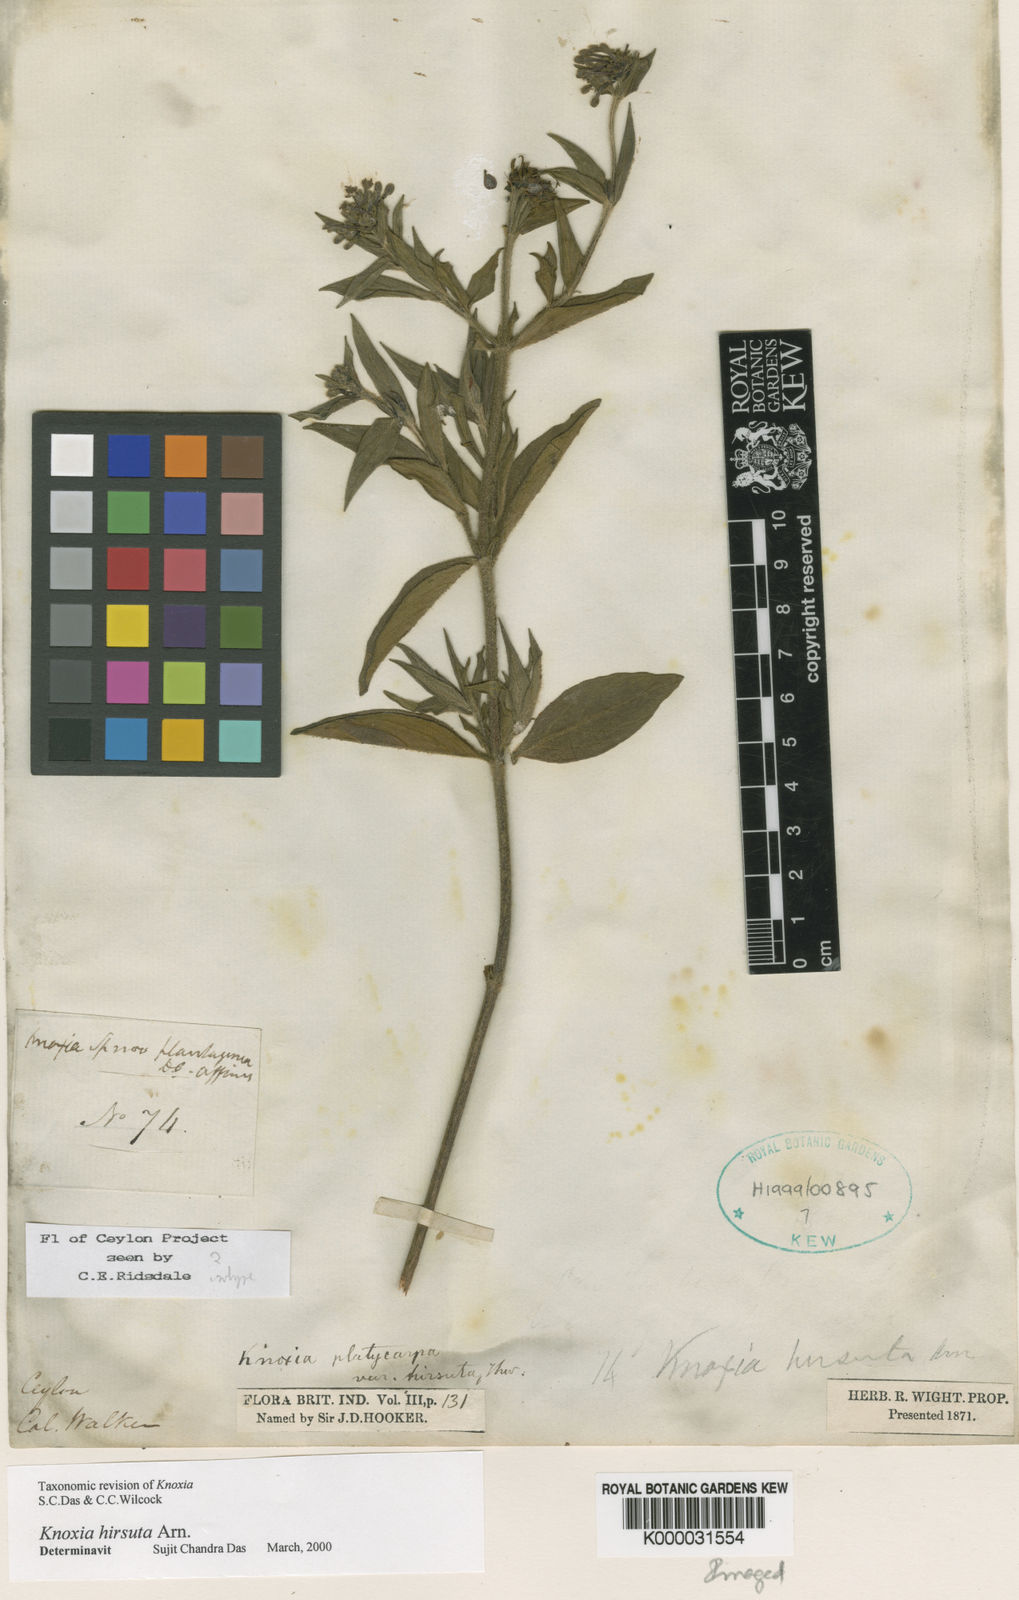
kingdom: Plantae
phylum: Tracheophyta
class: Magnoliopsida
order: Gentianales
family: Rubiaceae
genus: Knoxia
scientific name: Knoxia platycarpa
